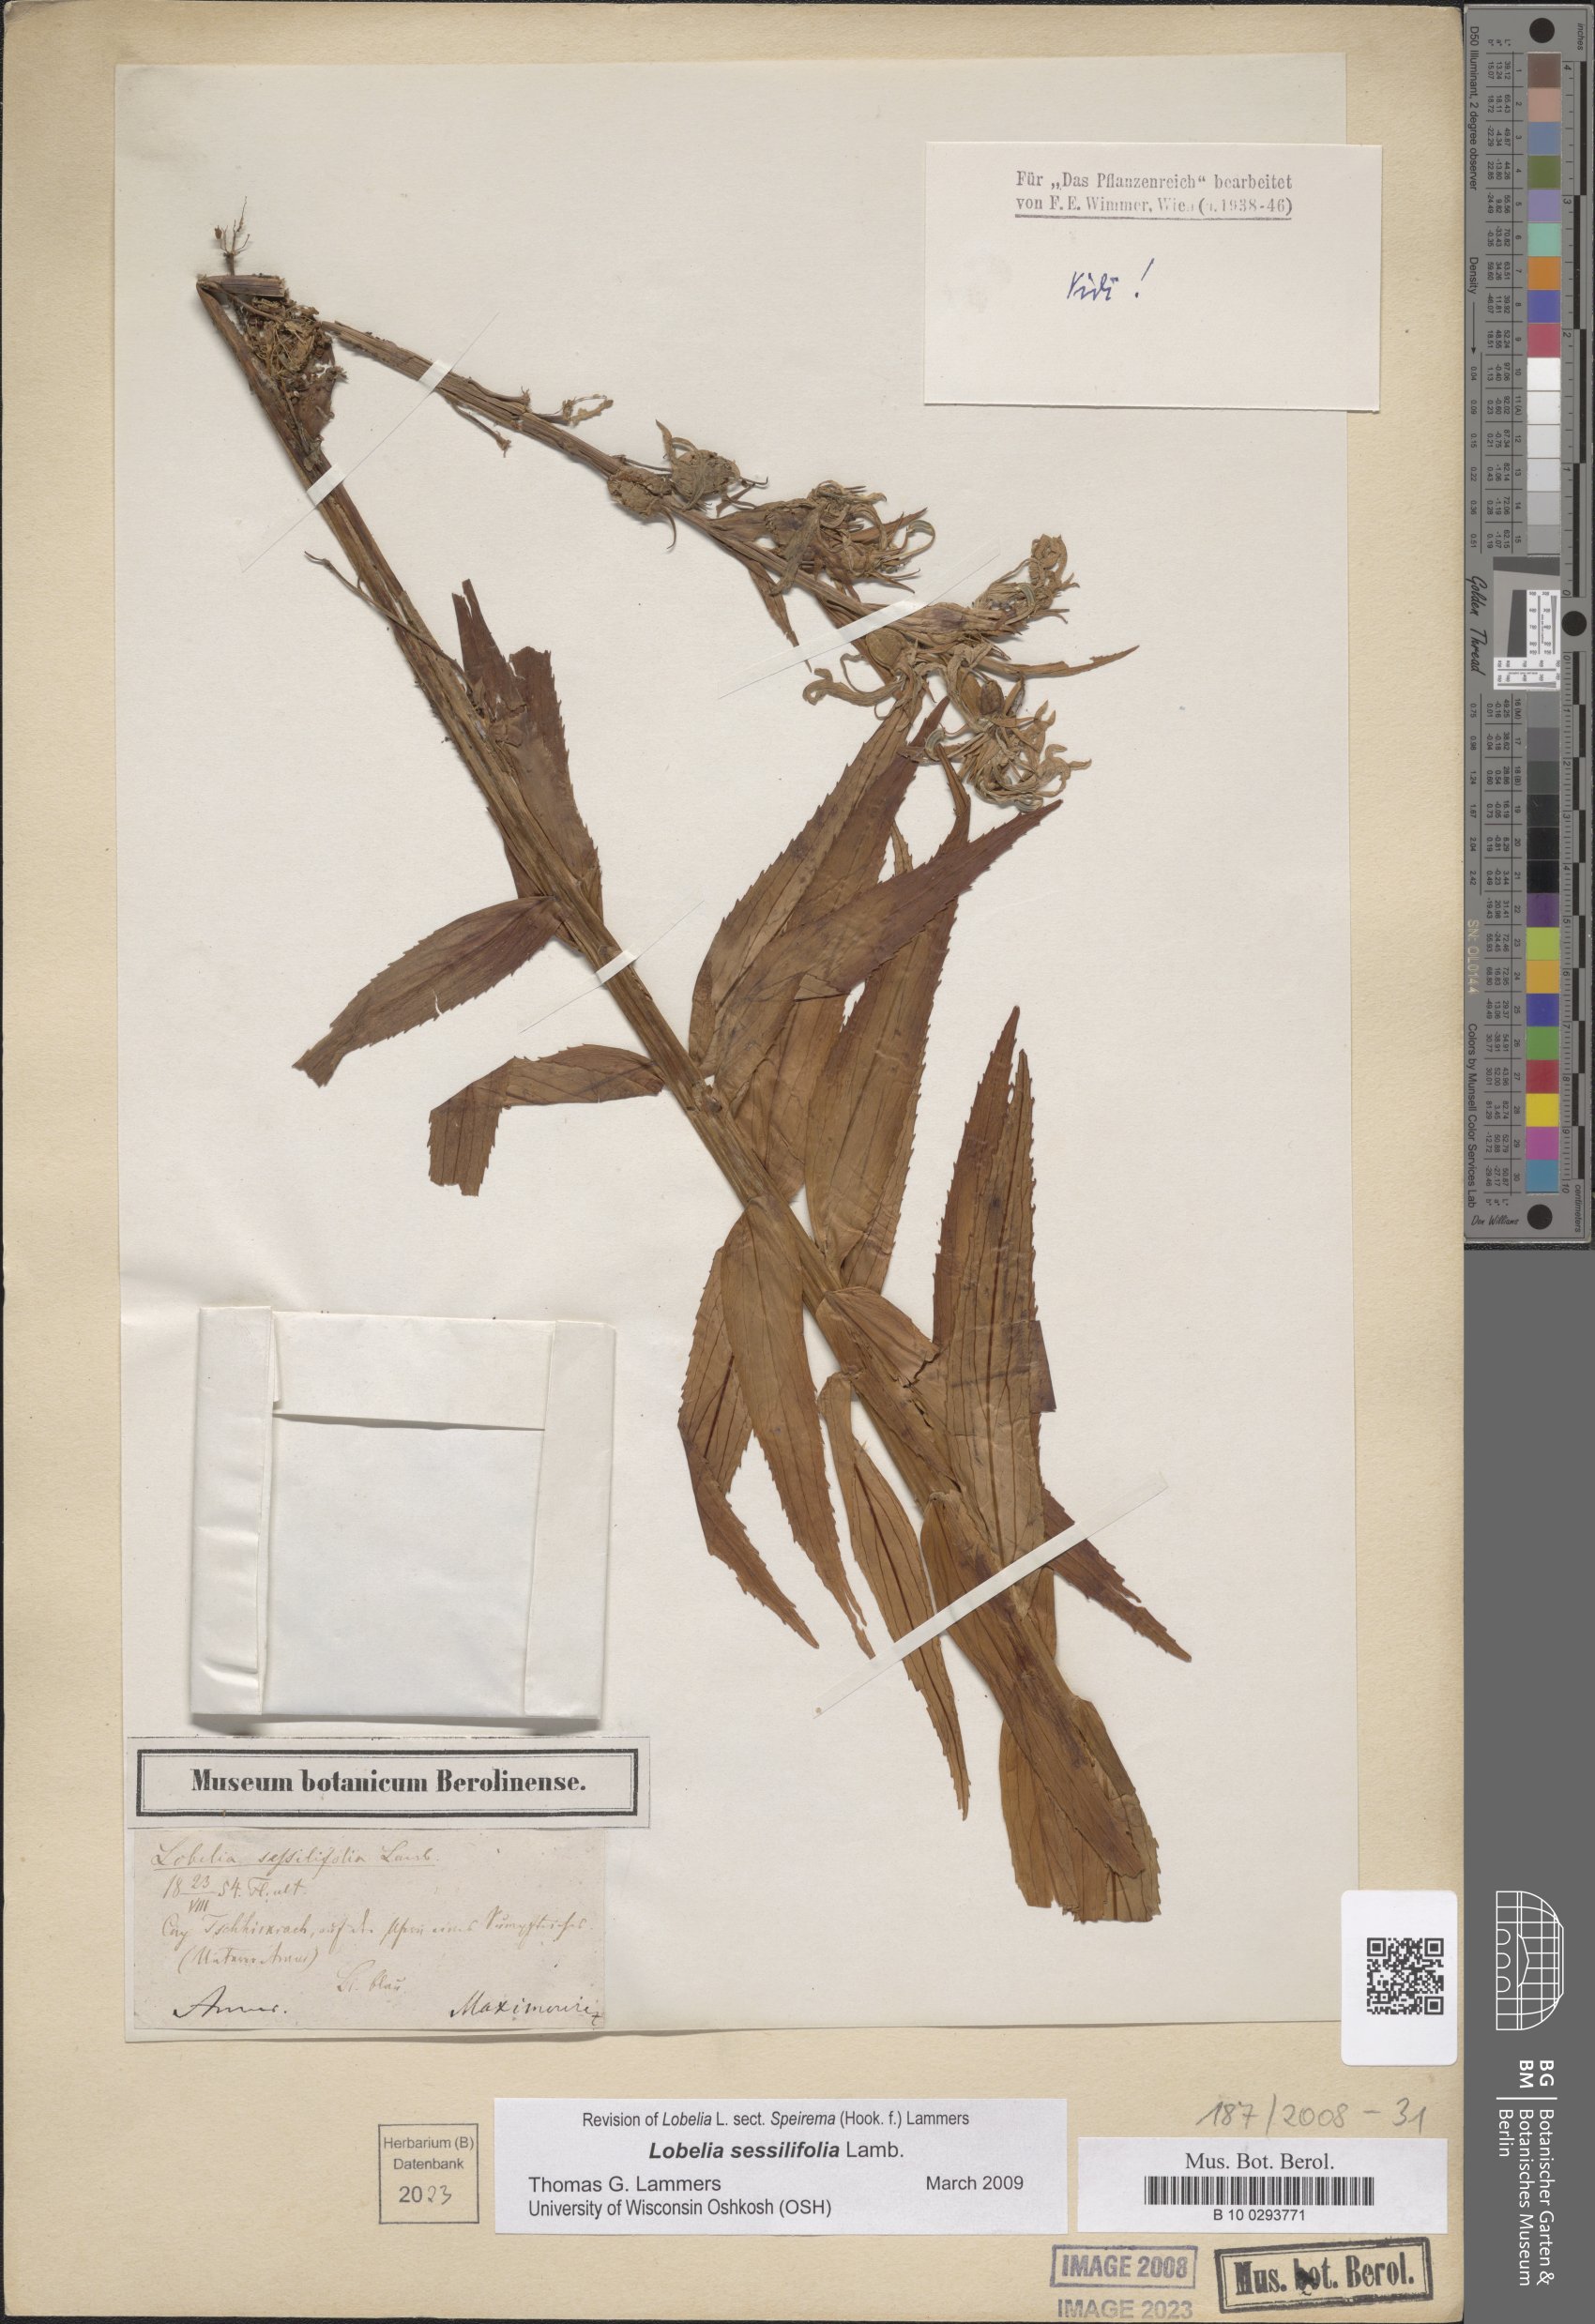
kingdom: Plantae
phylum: Tracheophyta
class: Magnoliopsida
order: Asterales
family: Campanulaceae
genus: Lobelia
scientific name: Lobelia sessilifolia
